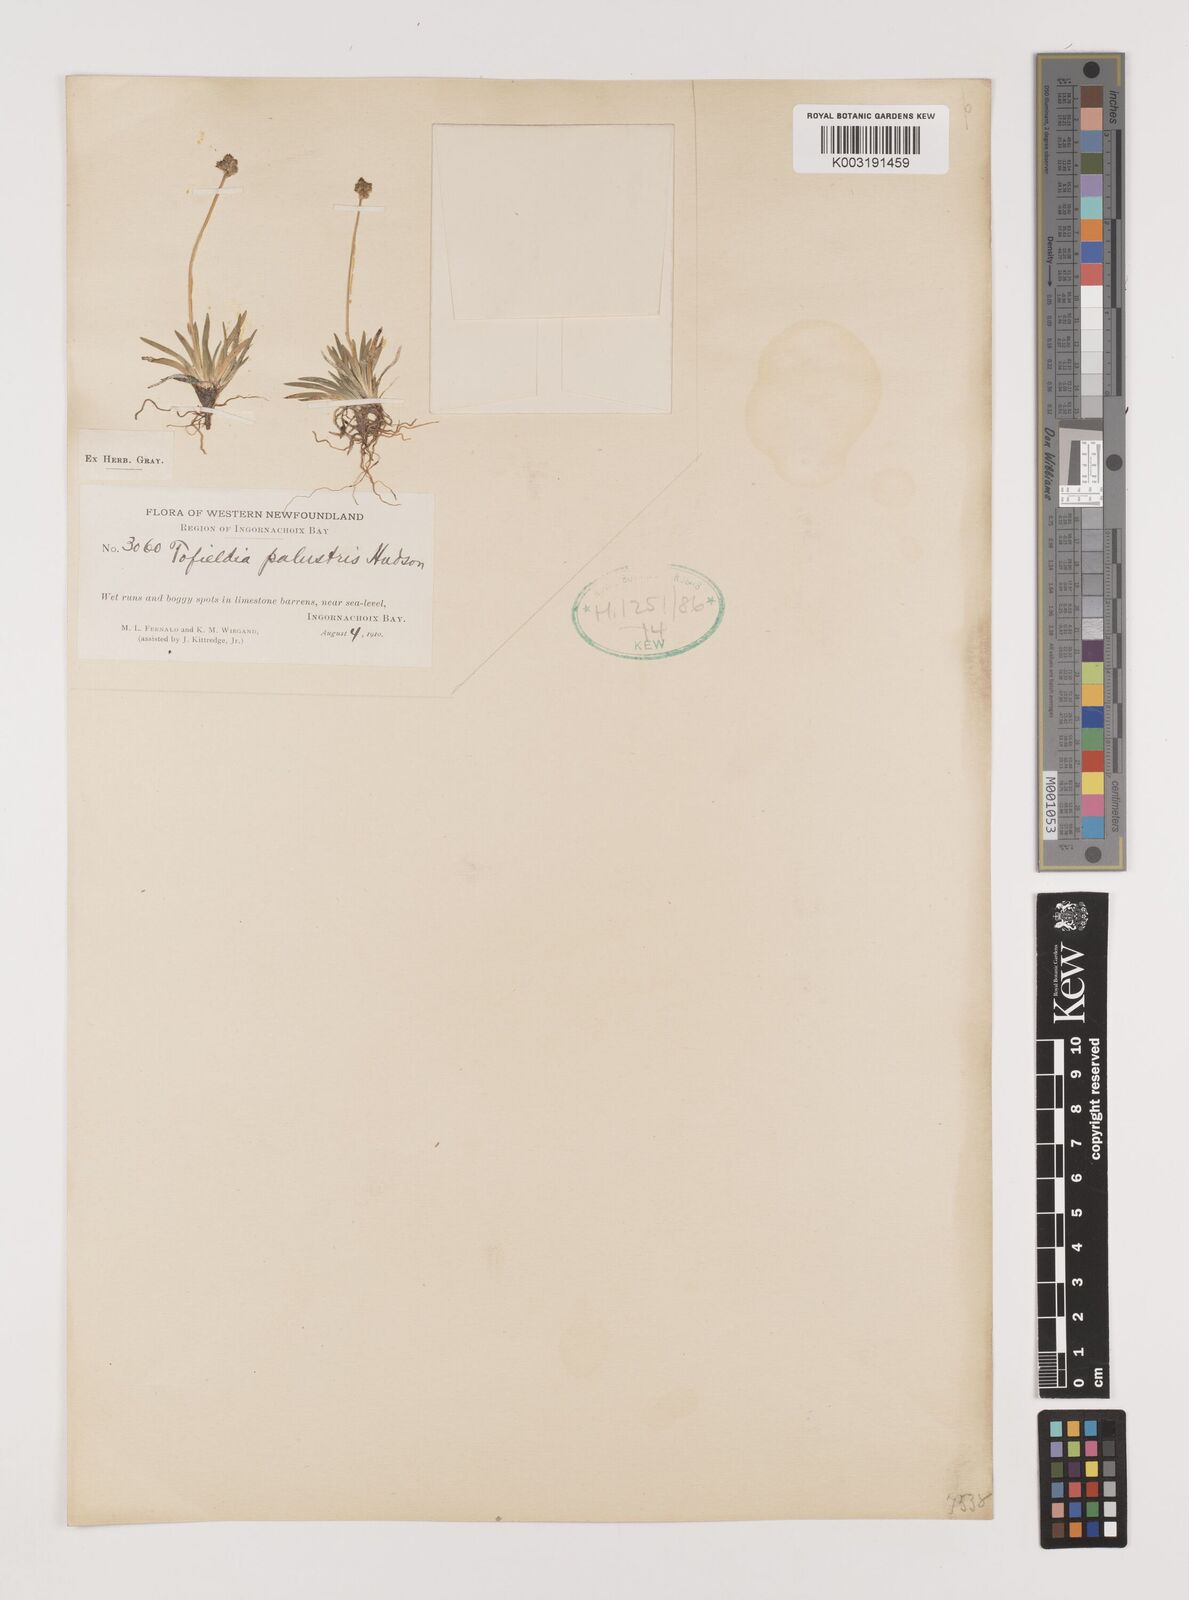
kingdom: Plantae
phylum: Tracheophyta
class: Liliopsida
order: Alismatales
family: Tofieldiaceae
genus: Tofieldia
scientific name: Tofieldia calyculata
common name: German-asphodel
